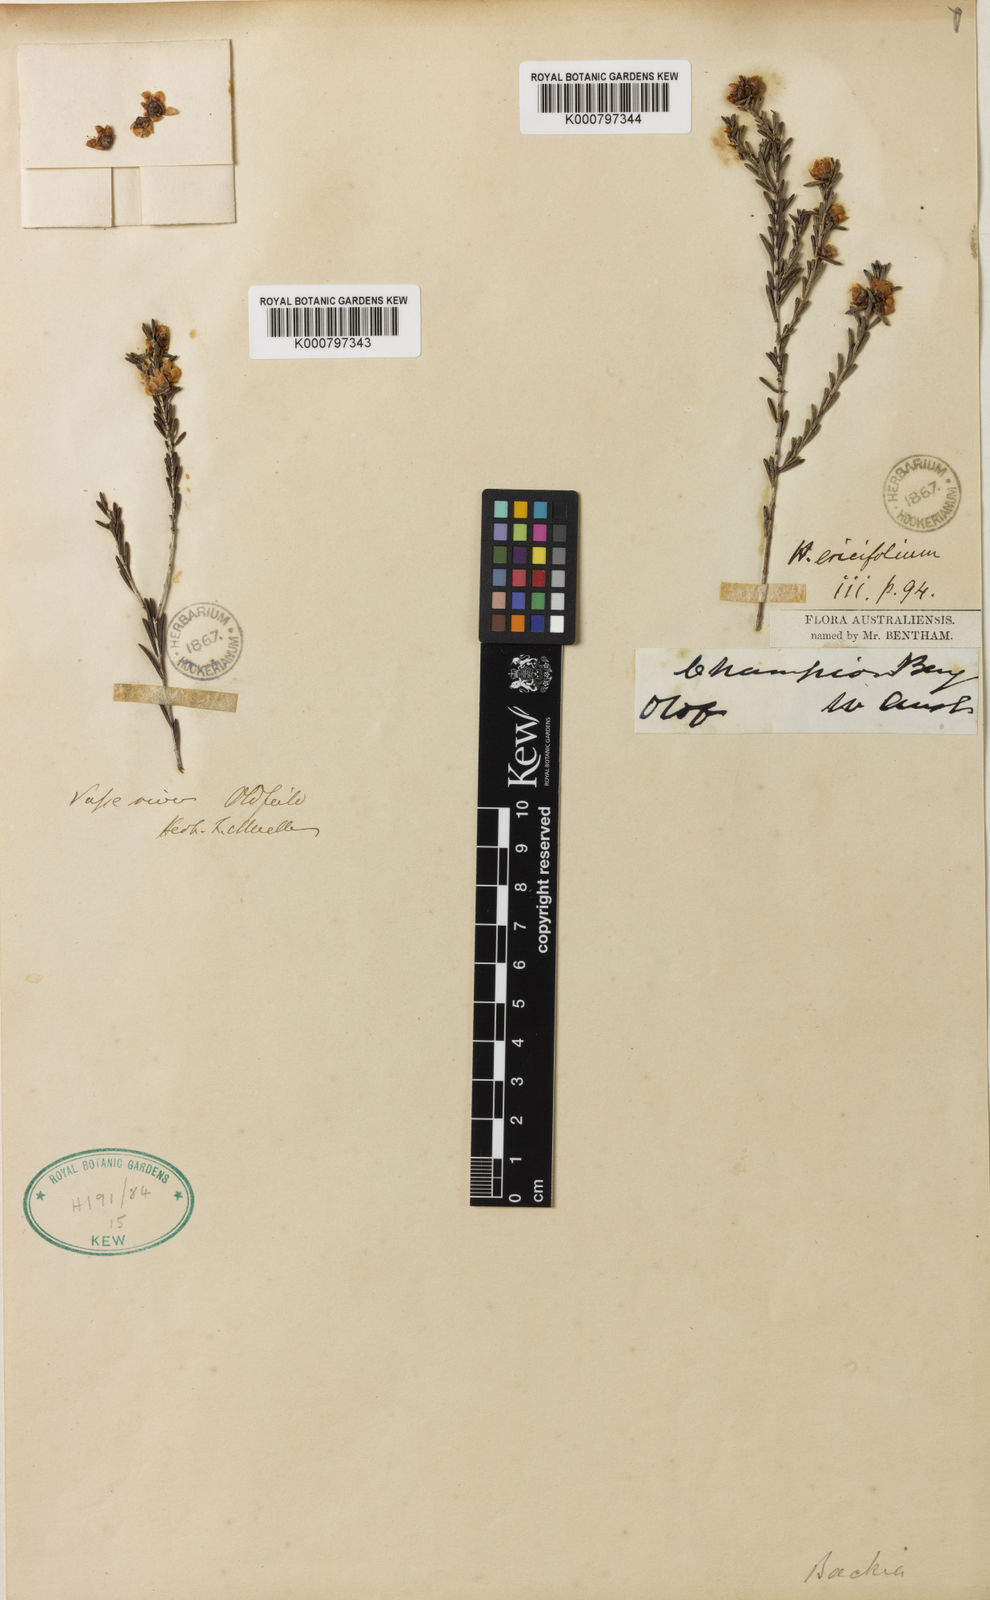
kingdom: Plantae
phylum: Tracheophyta
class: Magnoliopsida
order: Myrtales
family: Myrtaceae
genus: Hypocalymma
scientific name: Hypocalymma ericifolium
